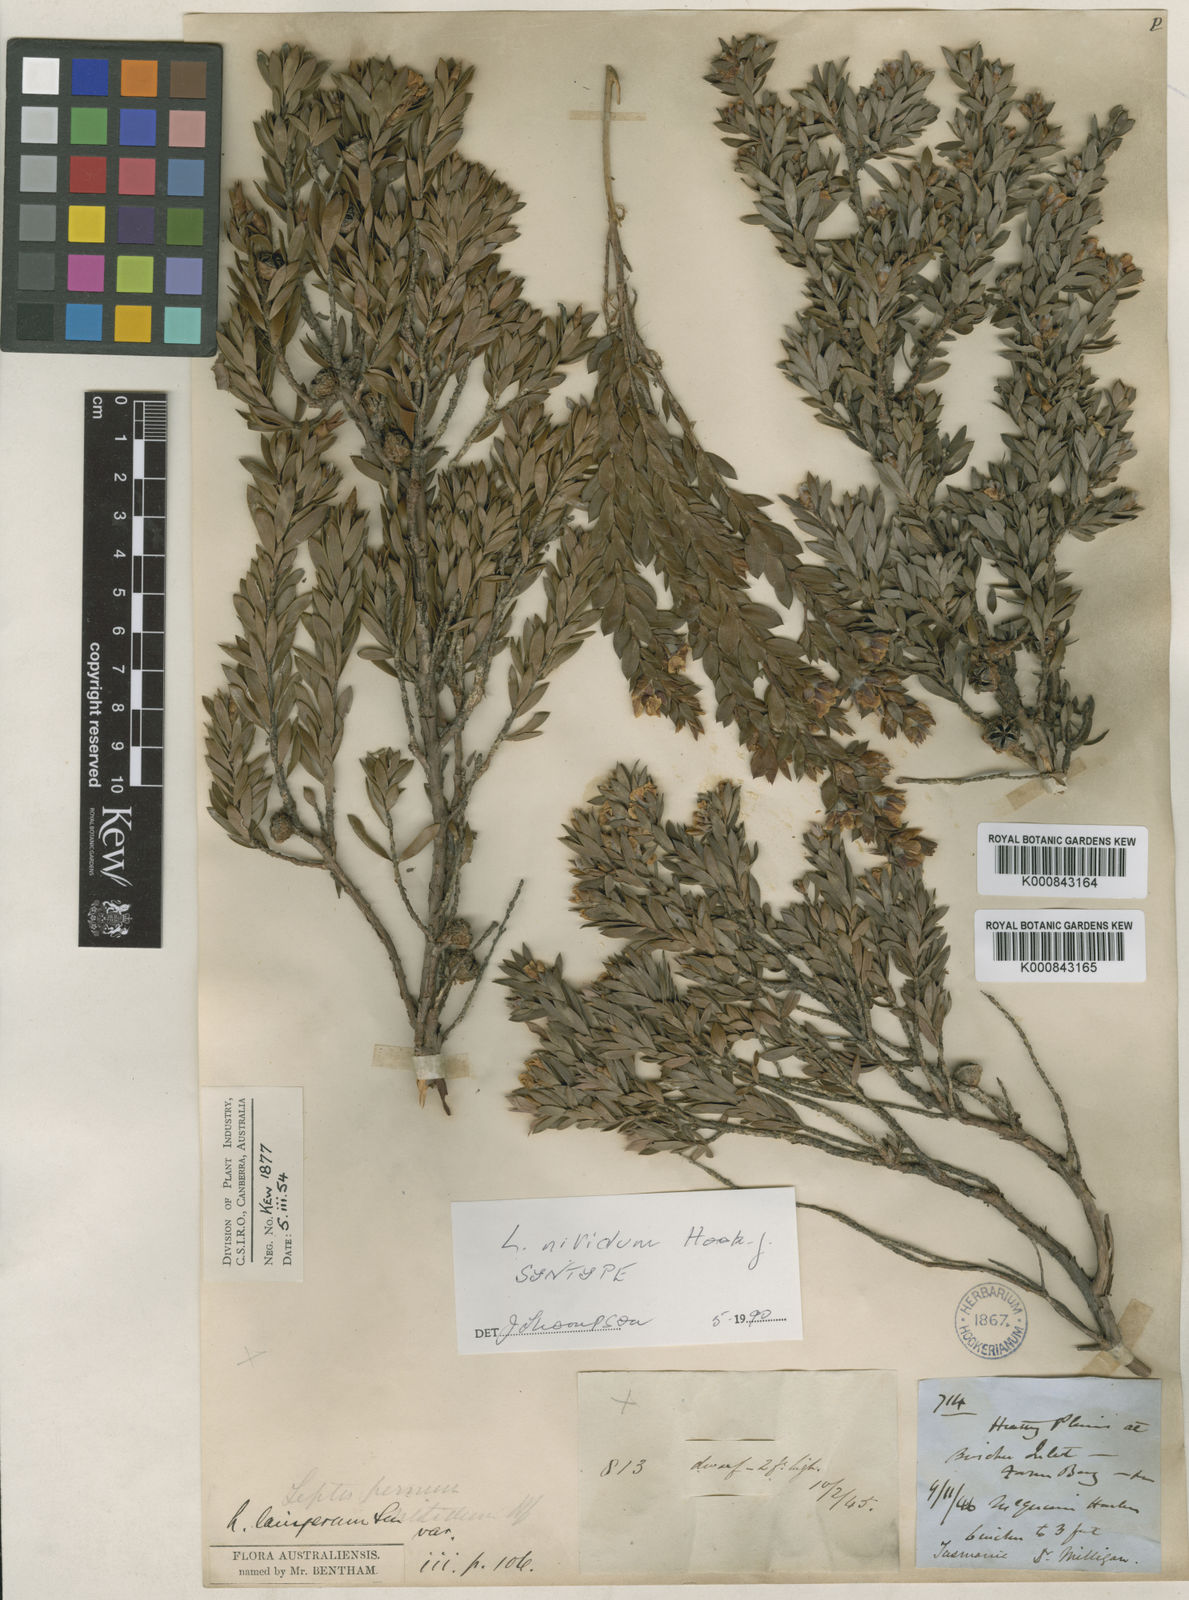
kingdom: Plantae
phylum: Tracheophyta
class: Magnoliopsida
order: Myrtales
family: Myrtaceae
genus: Leptospermum
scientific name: Leptospermum nitidum
